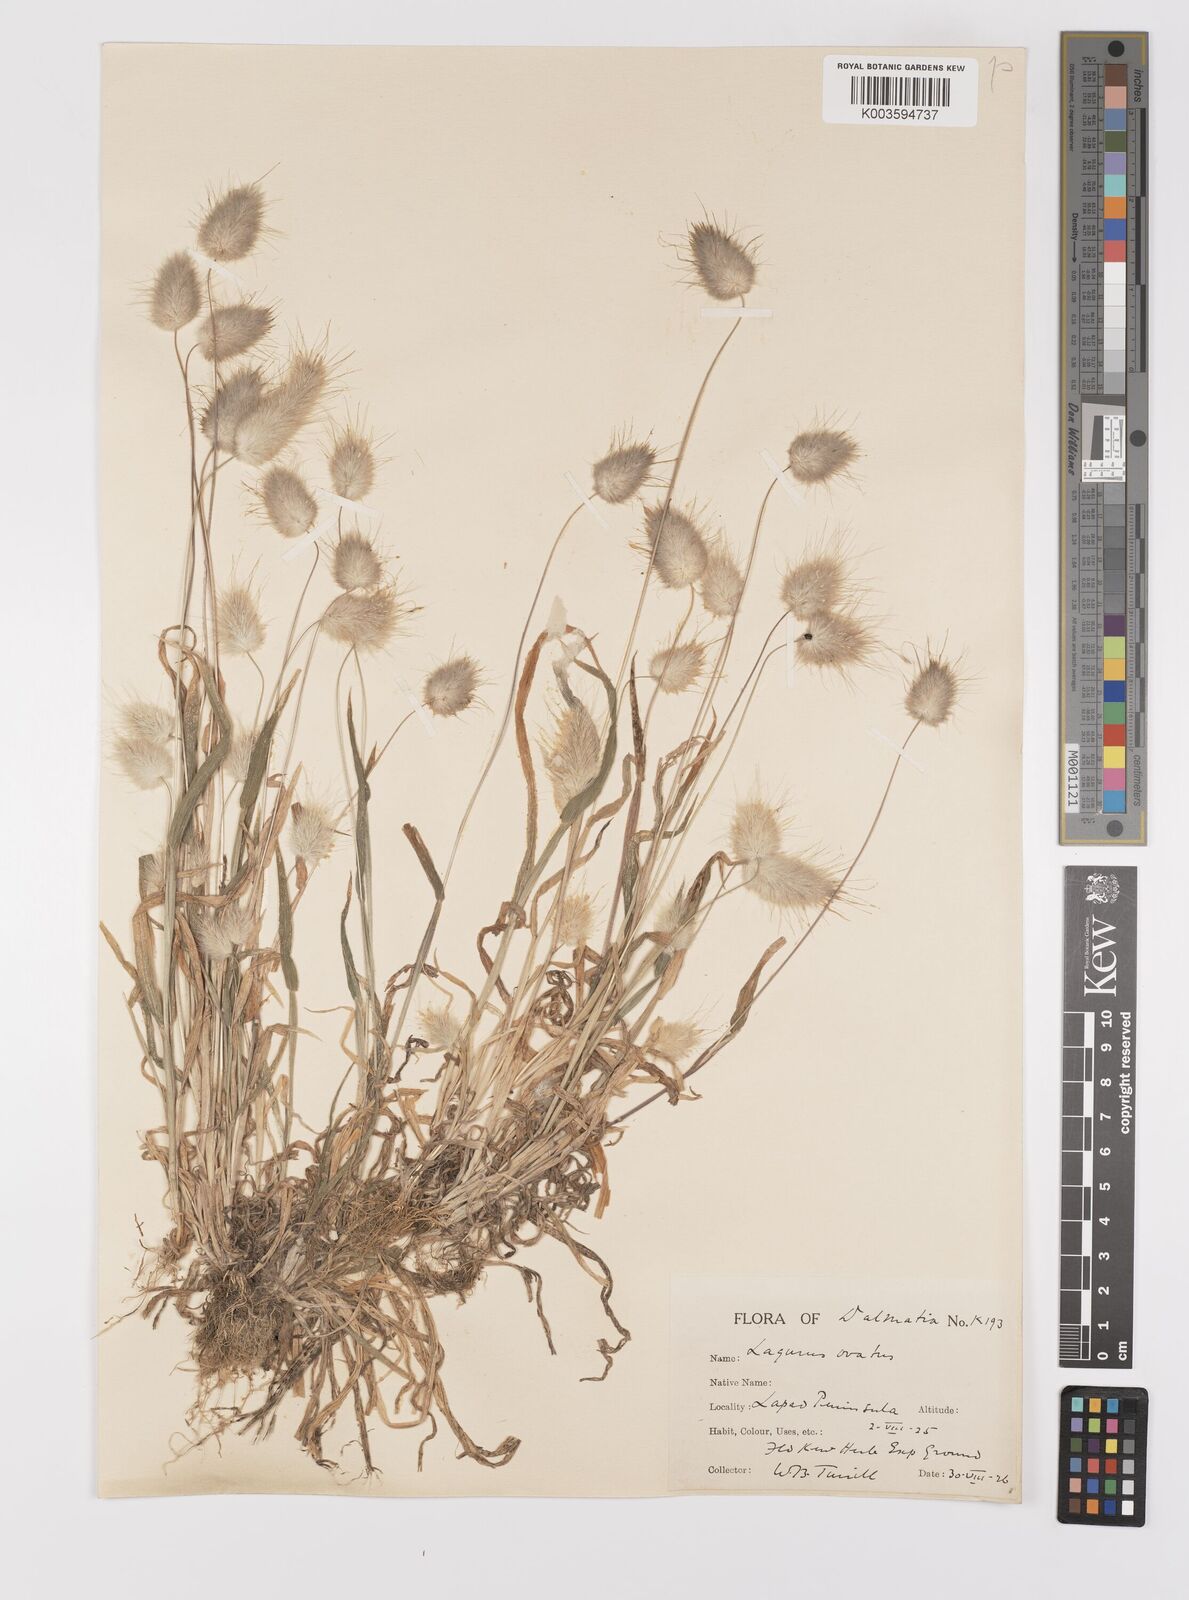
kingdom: Plantae
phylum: Tracheophyta
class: Liliopsida
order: Poales
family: Poaceae
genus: Lagurus
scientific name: Lagurus ovatus
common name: Hare's-tail
